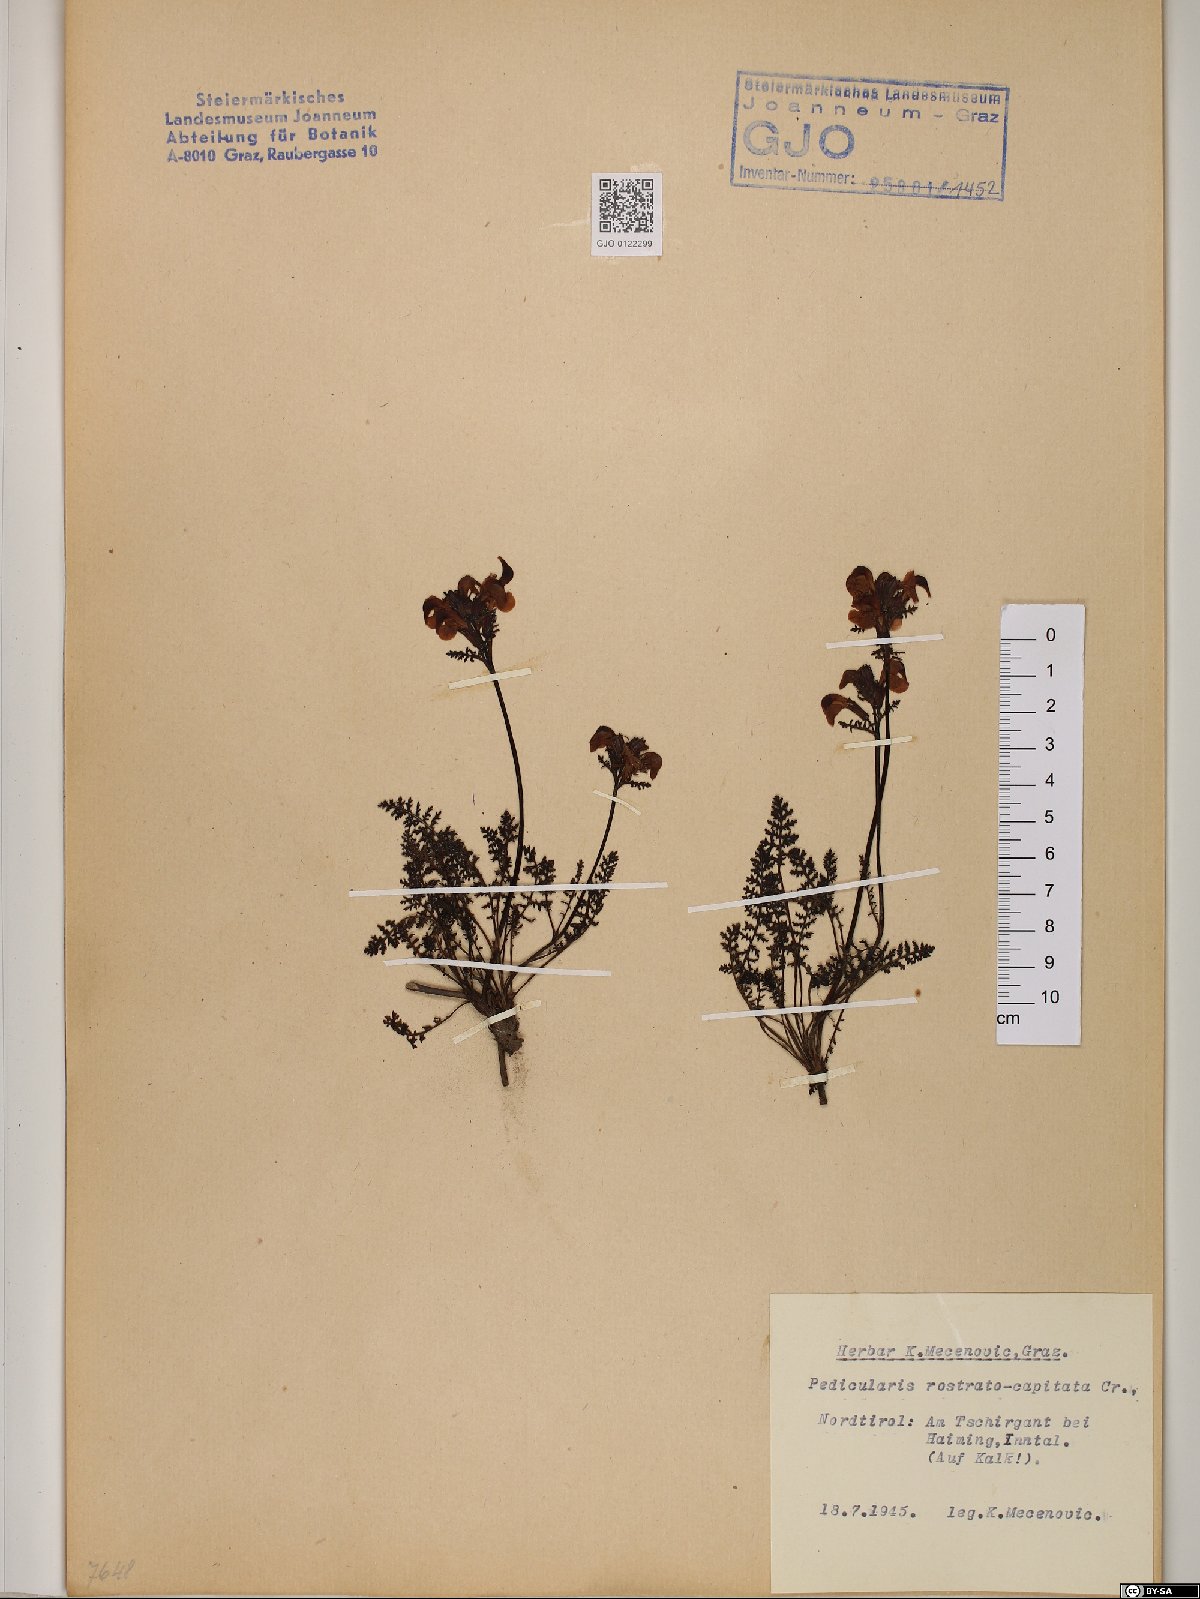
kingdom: Plantae
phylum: Tracheophyta
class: Magnoliopsida
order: Lamiales
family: Orobanchaceae
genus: Pedicularis
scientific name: Pedicularis rostratocapitata
